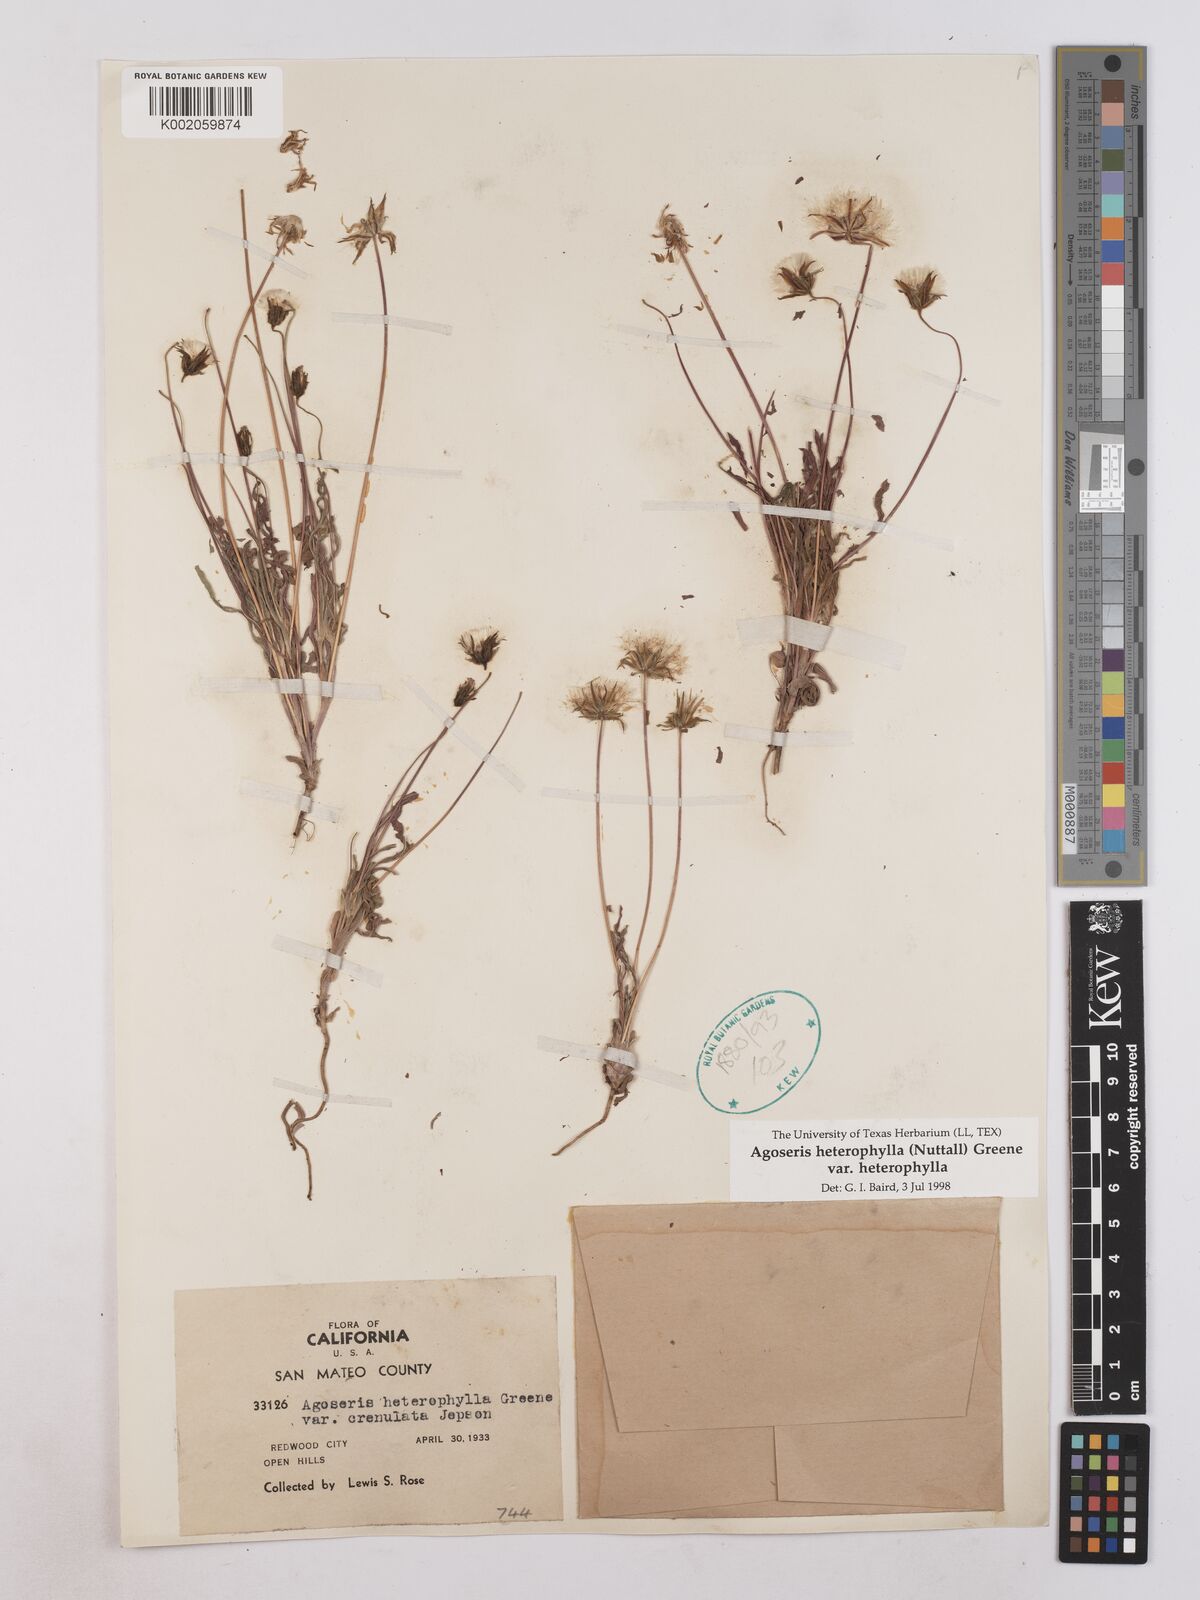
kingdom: Plantae
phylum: Tracheophyta
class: Magnoliopsida
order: Asterales
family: Asteraceae
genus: Agoseris
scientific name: Agoseris heterophylla
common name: Annual agoseris
